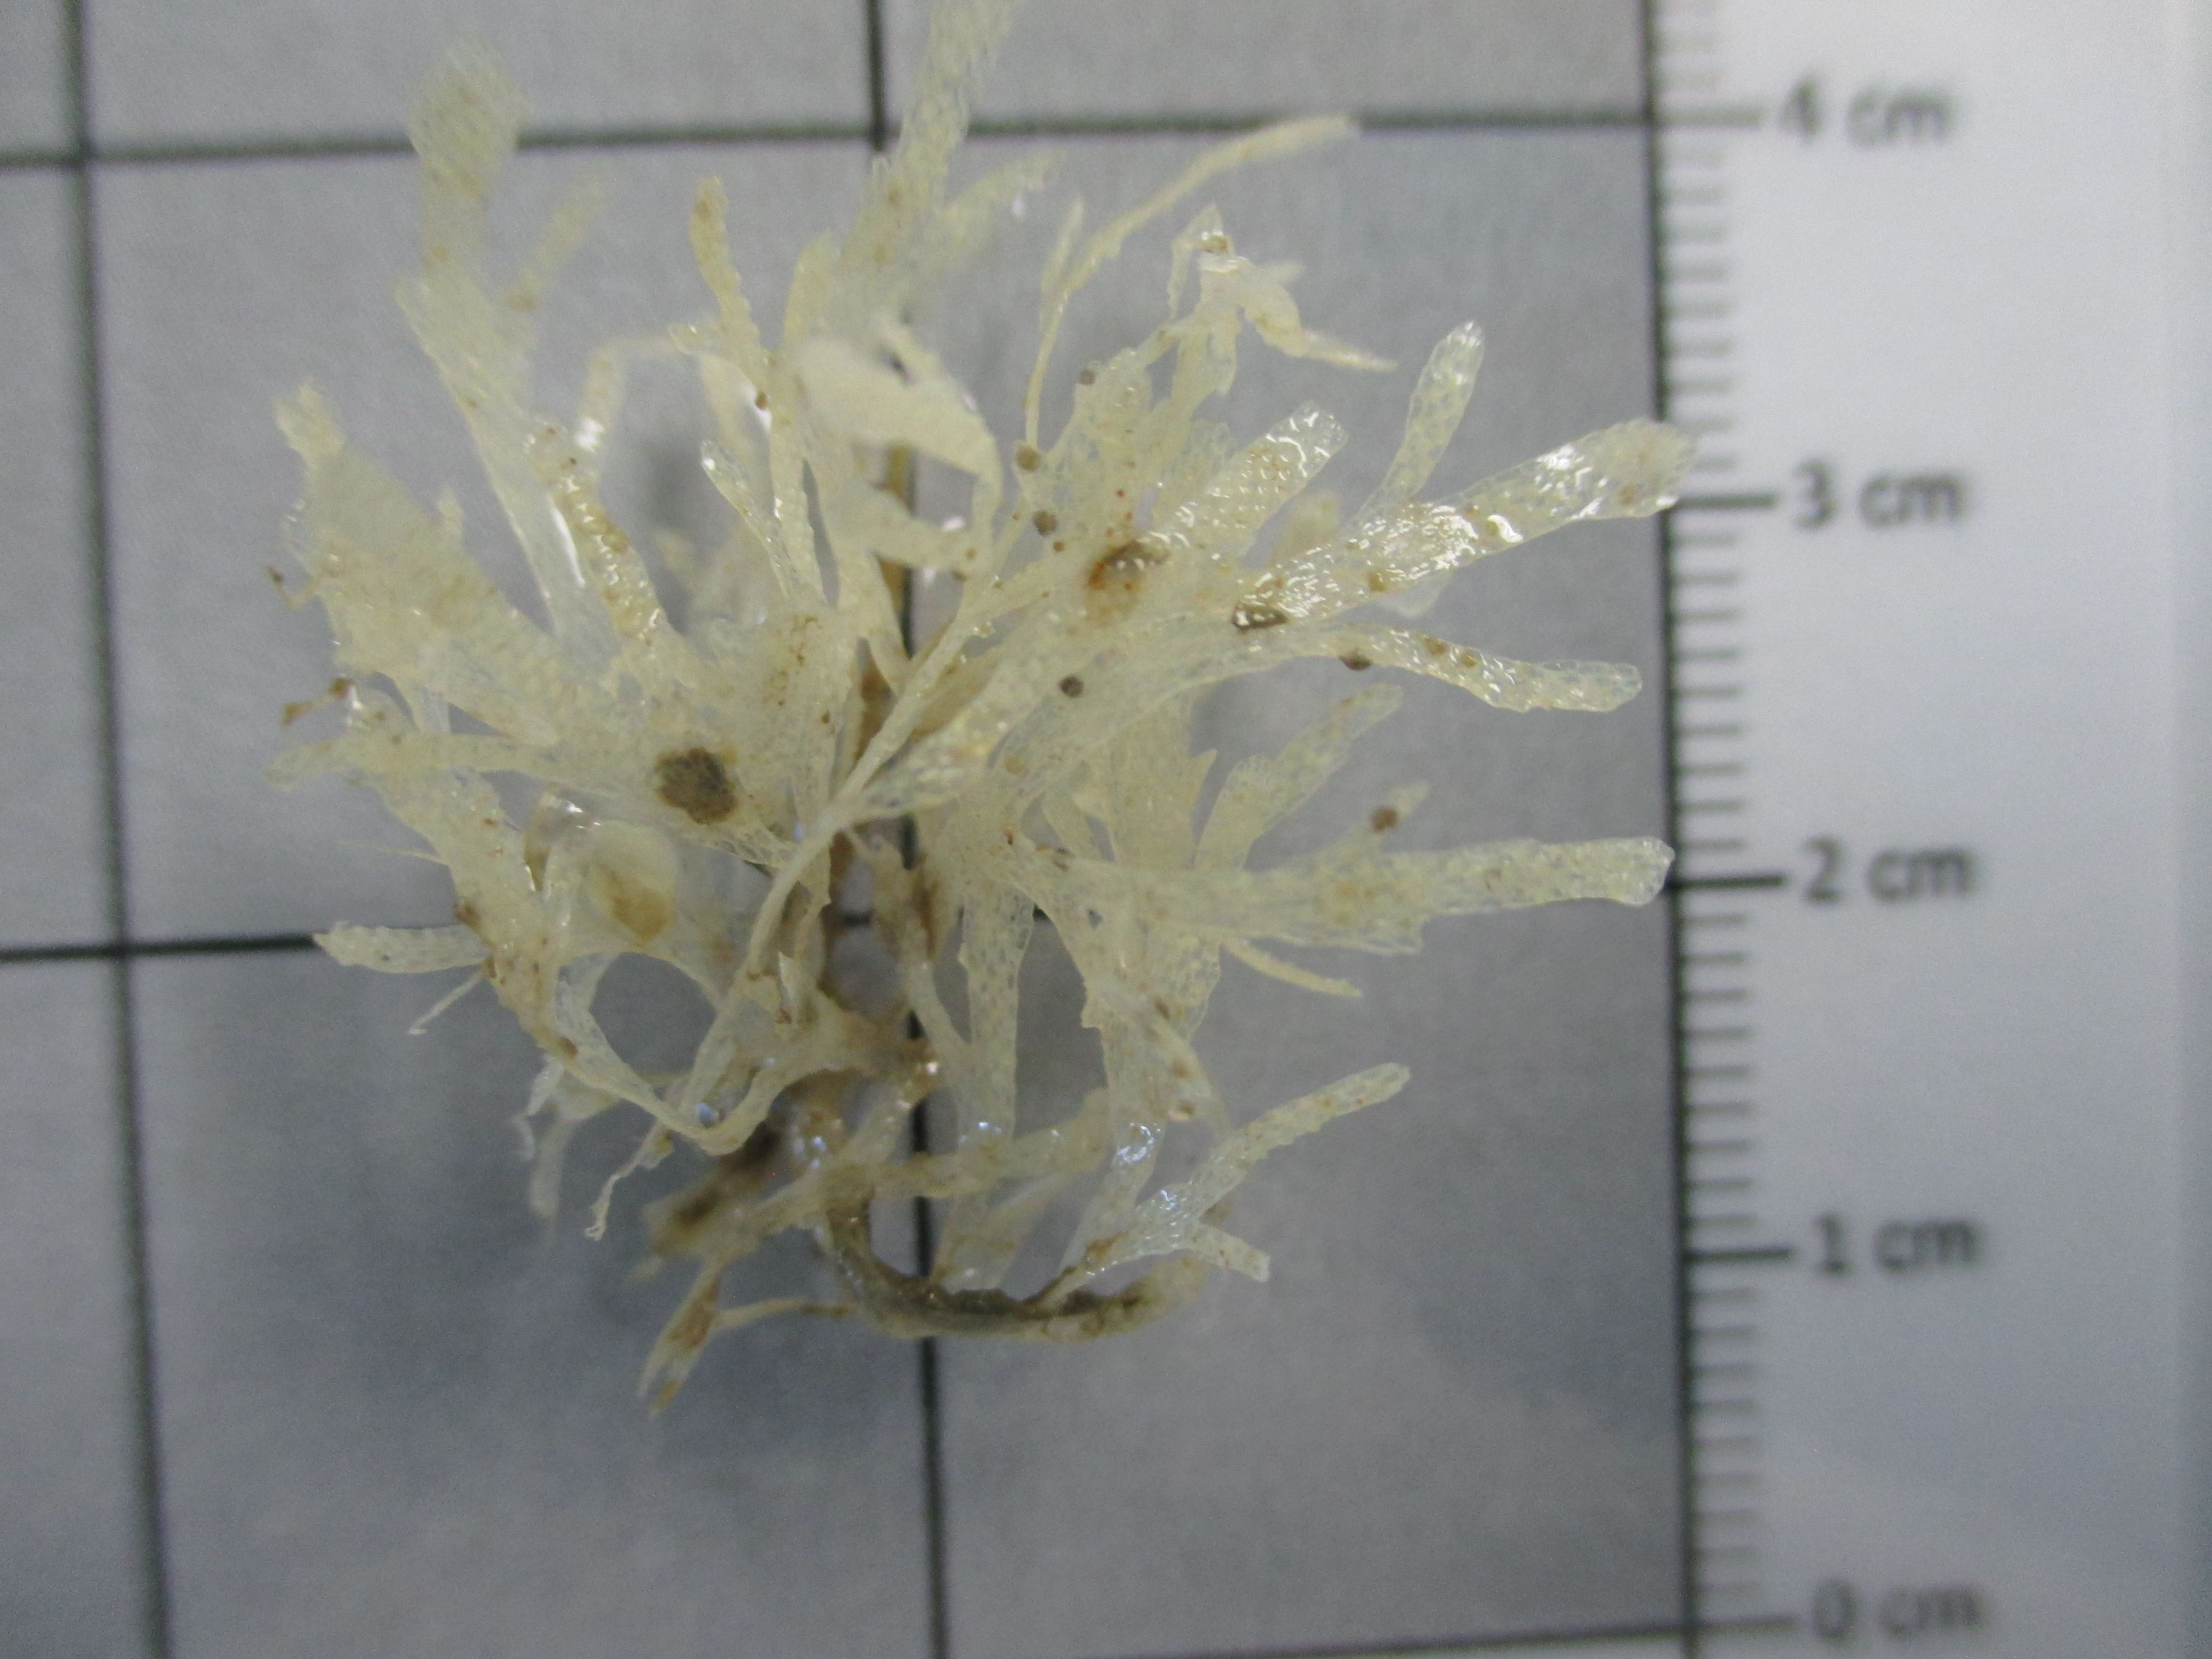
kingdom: Animalia
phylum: Bryozoa
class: Gymnolaemata
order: Cheilostomatida
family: Calwelliidae
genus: Onchoporella
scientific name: Onchoporella bombycina
